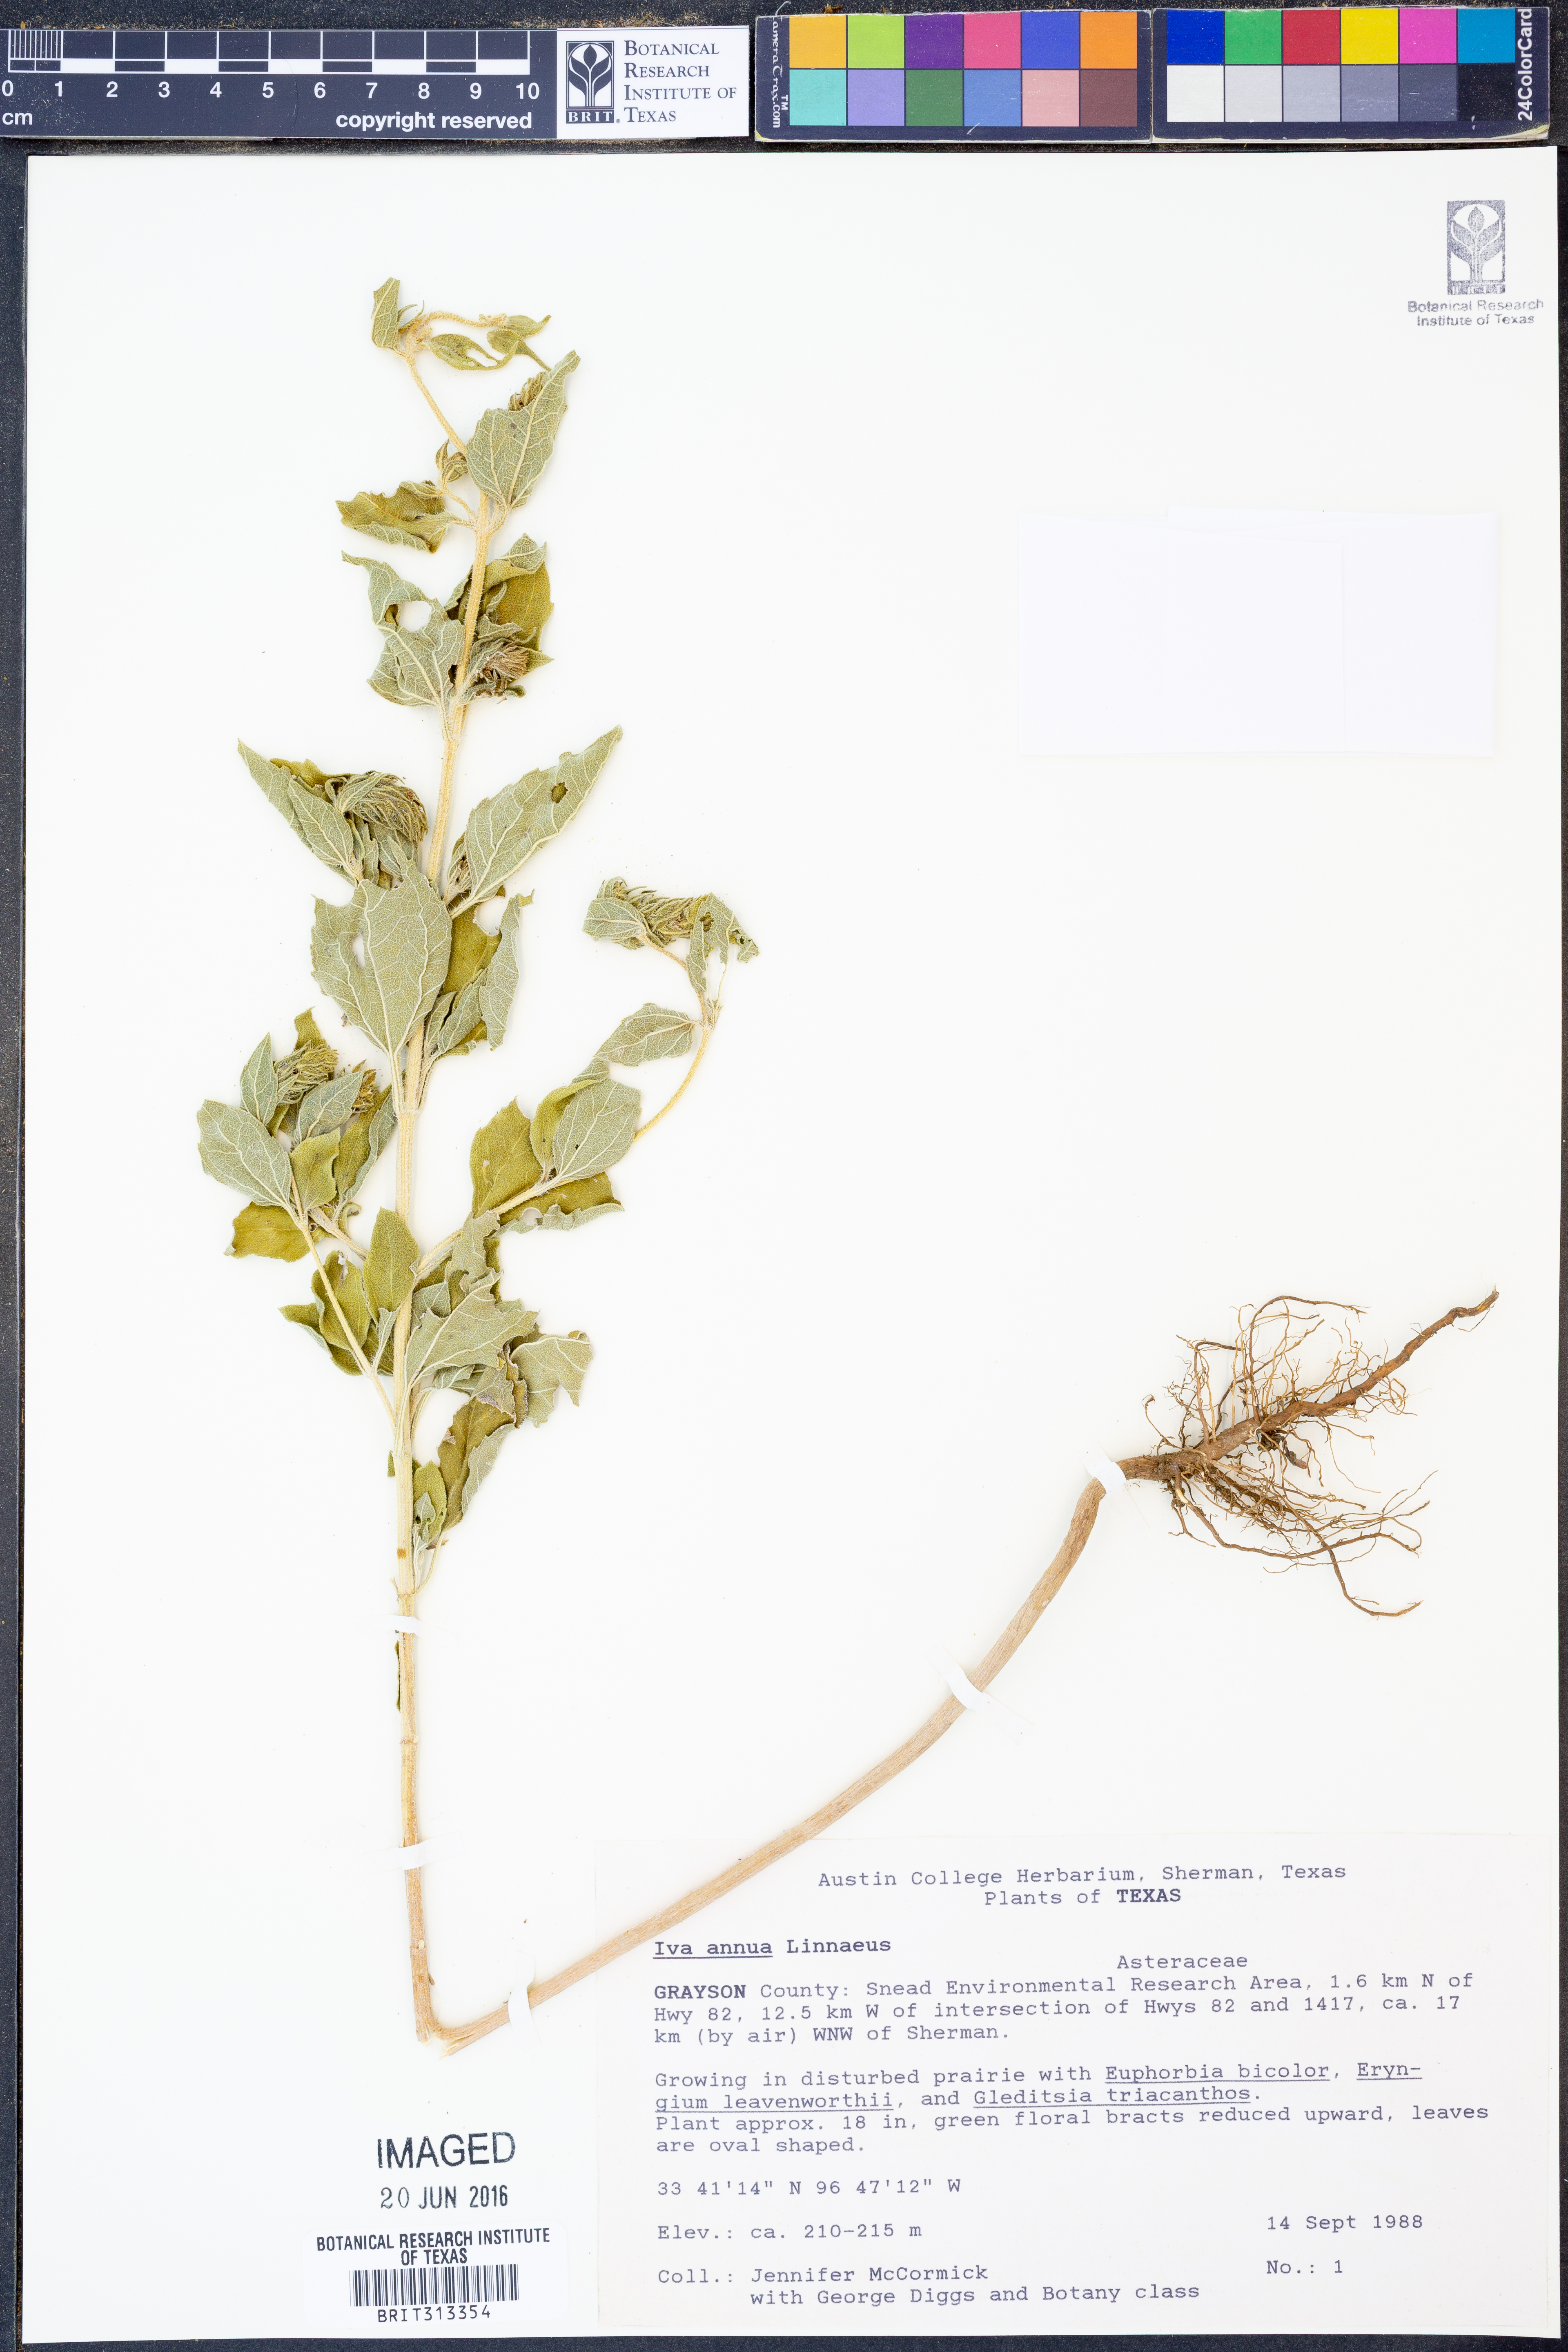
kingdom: Plantae
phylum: Tracheophyta
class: Magnoliopsida
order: Asterales
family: Asteraceae
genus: Iva
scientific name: Iva annua
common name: Marsh-elder
